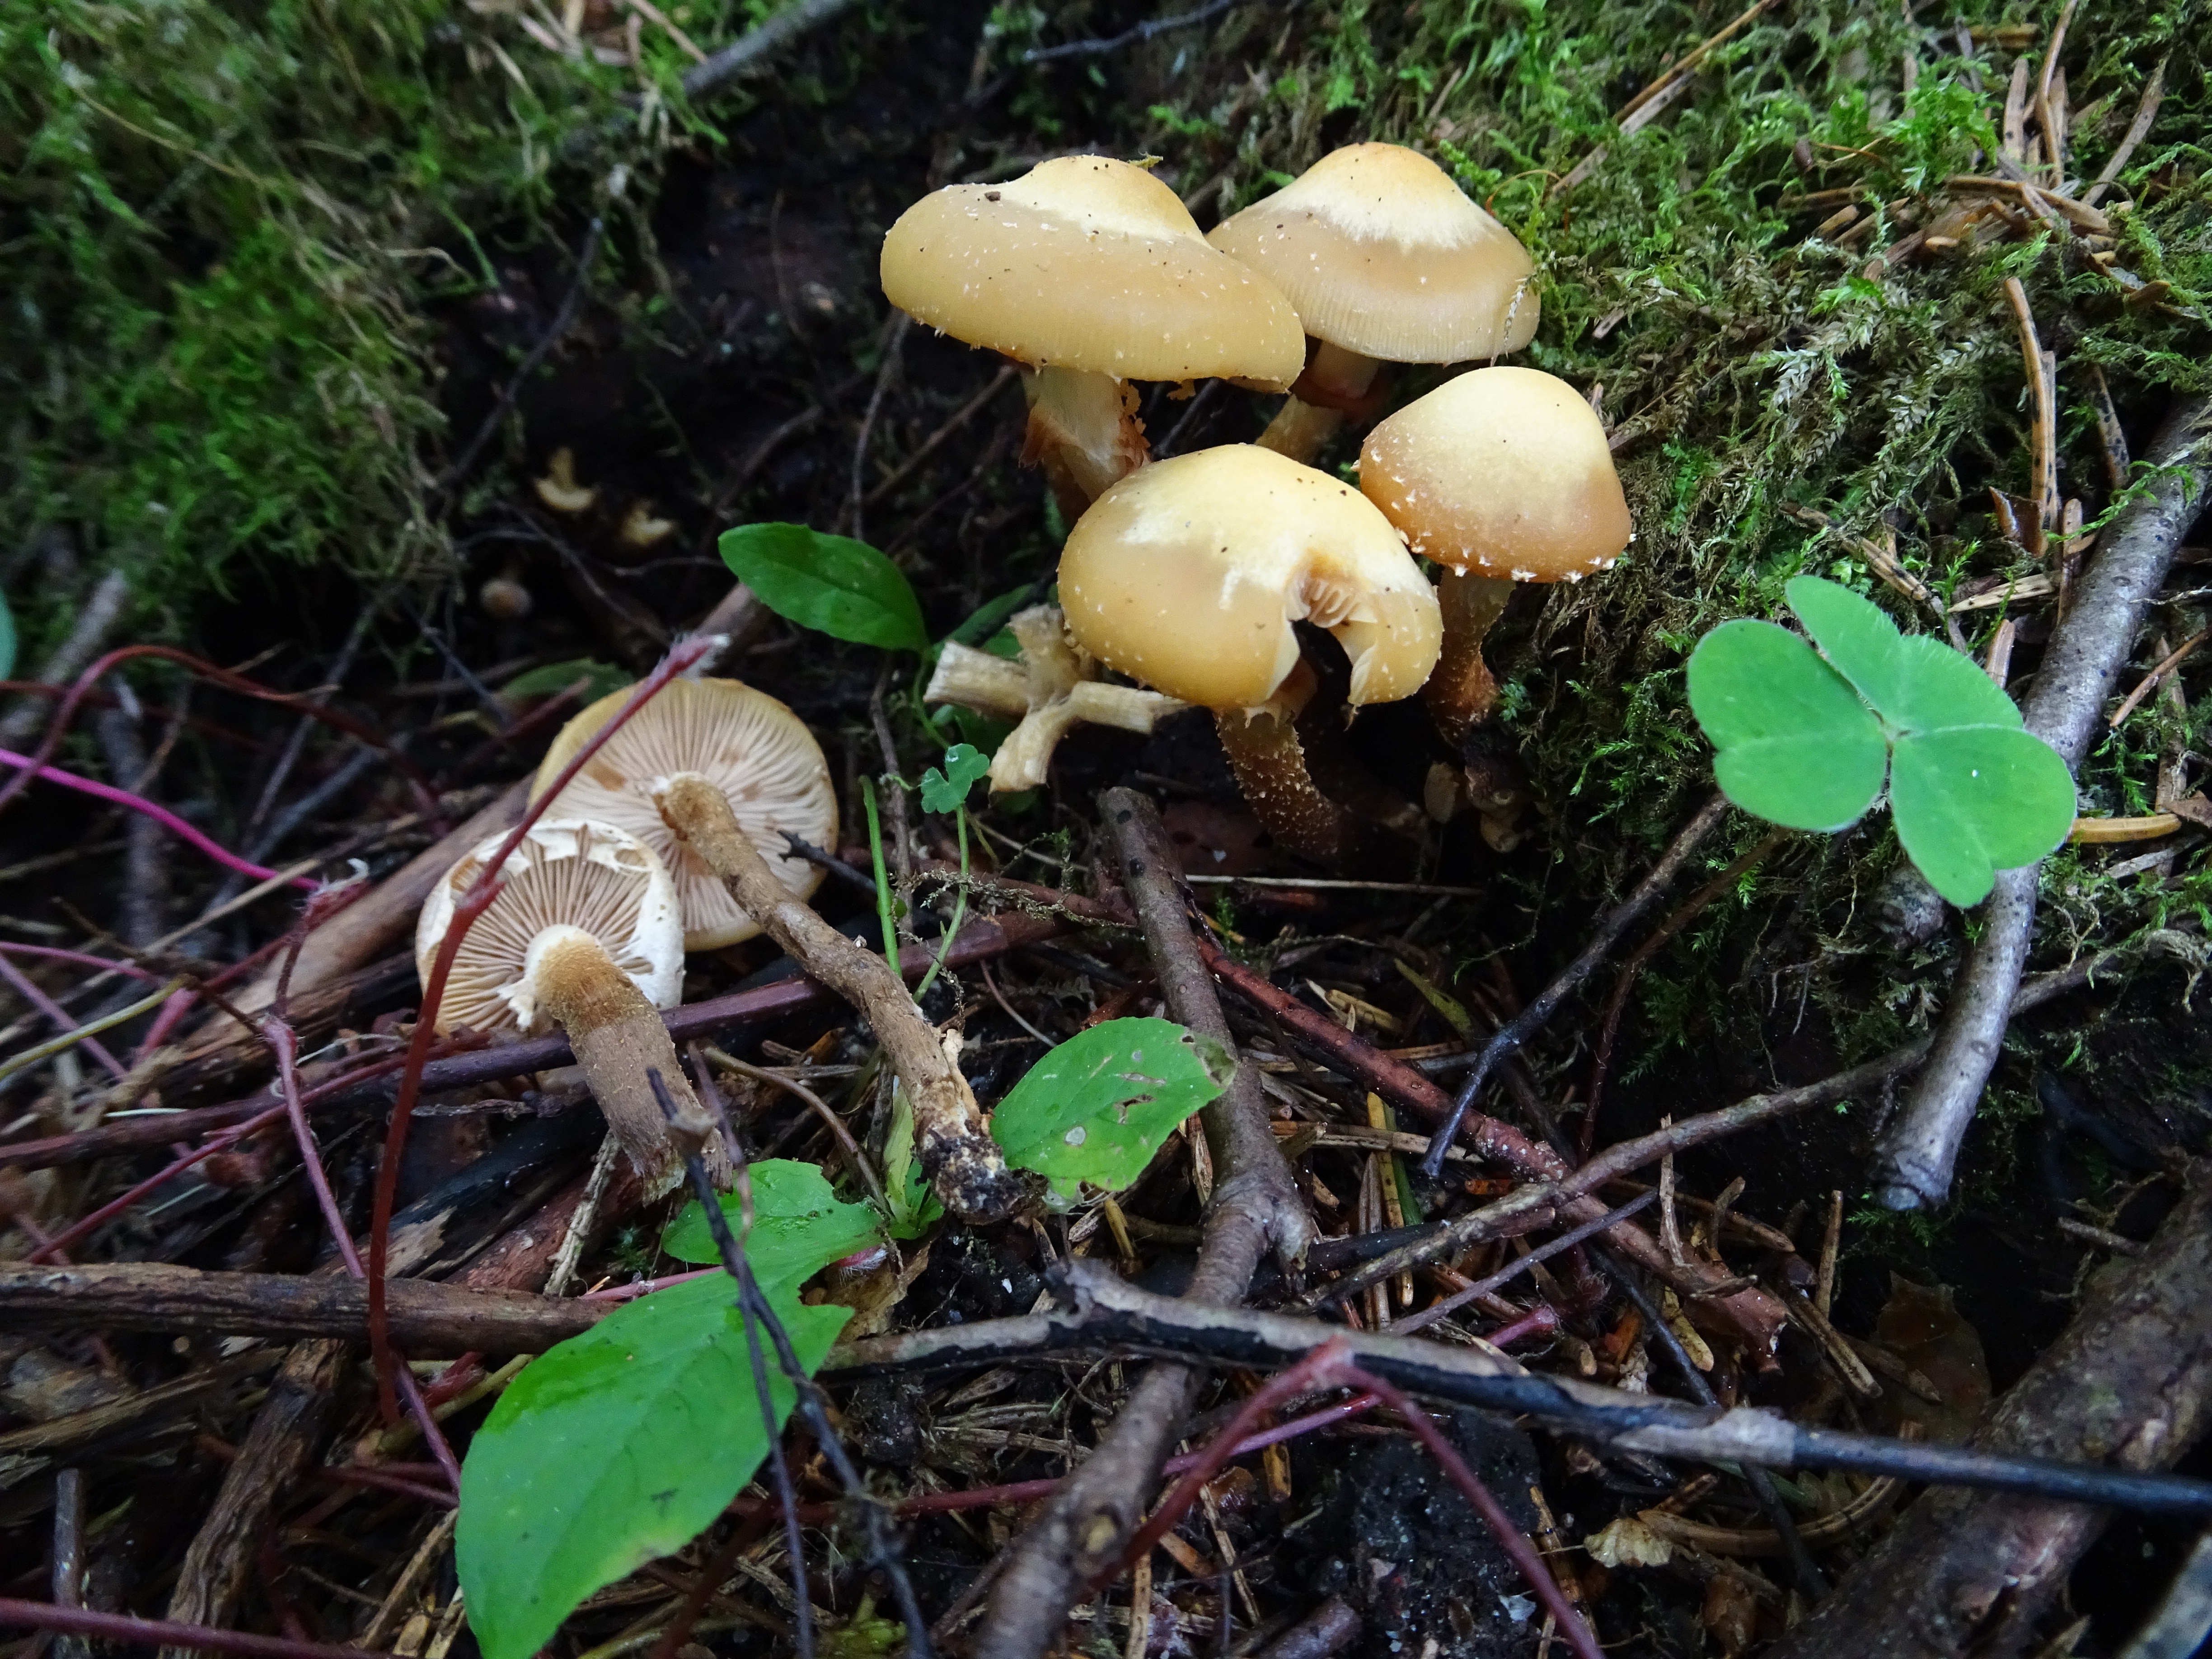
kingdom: Fungi
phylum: Basidiomycota
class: Agaricomycetes
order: Agaricales
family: Strophariaceae
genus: Kuehneromyces
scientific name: Kuehneromyces mutabilis
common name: Sheathed woodtuft
